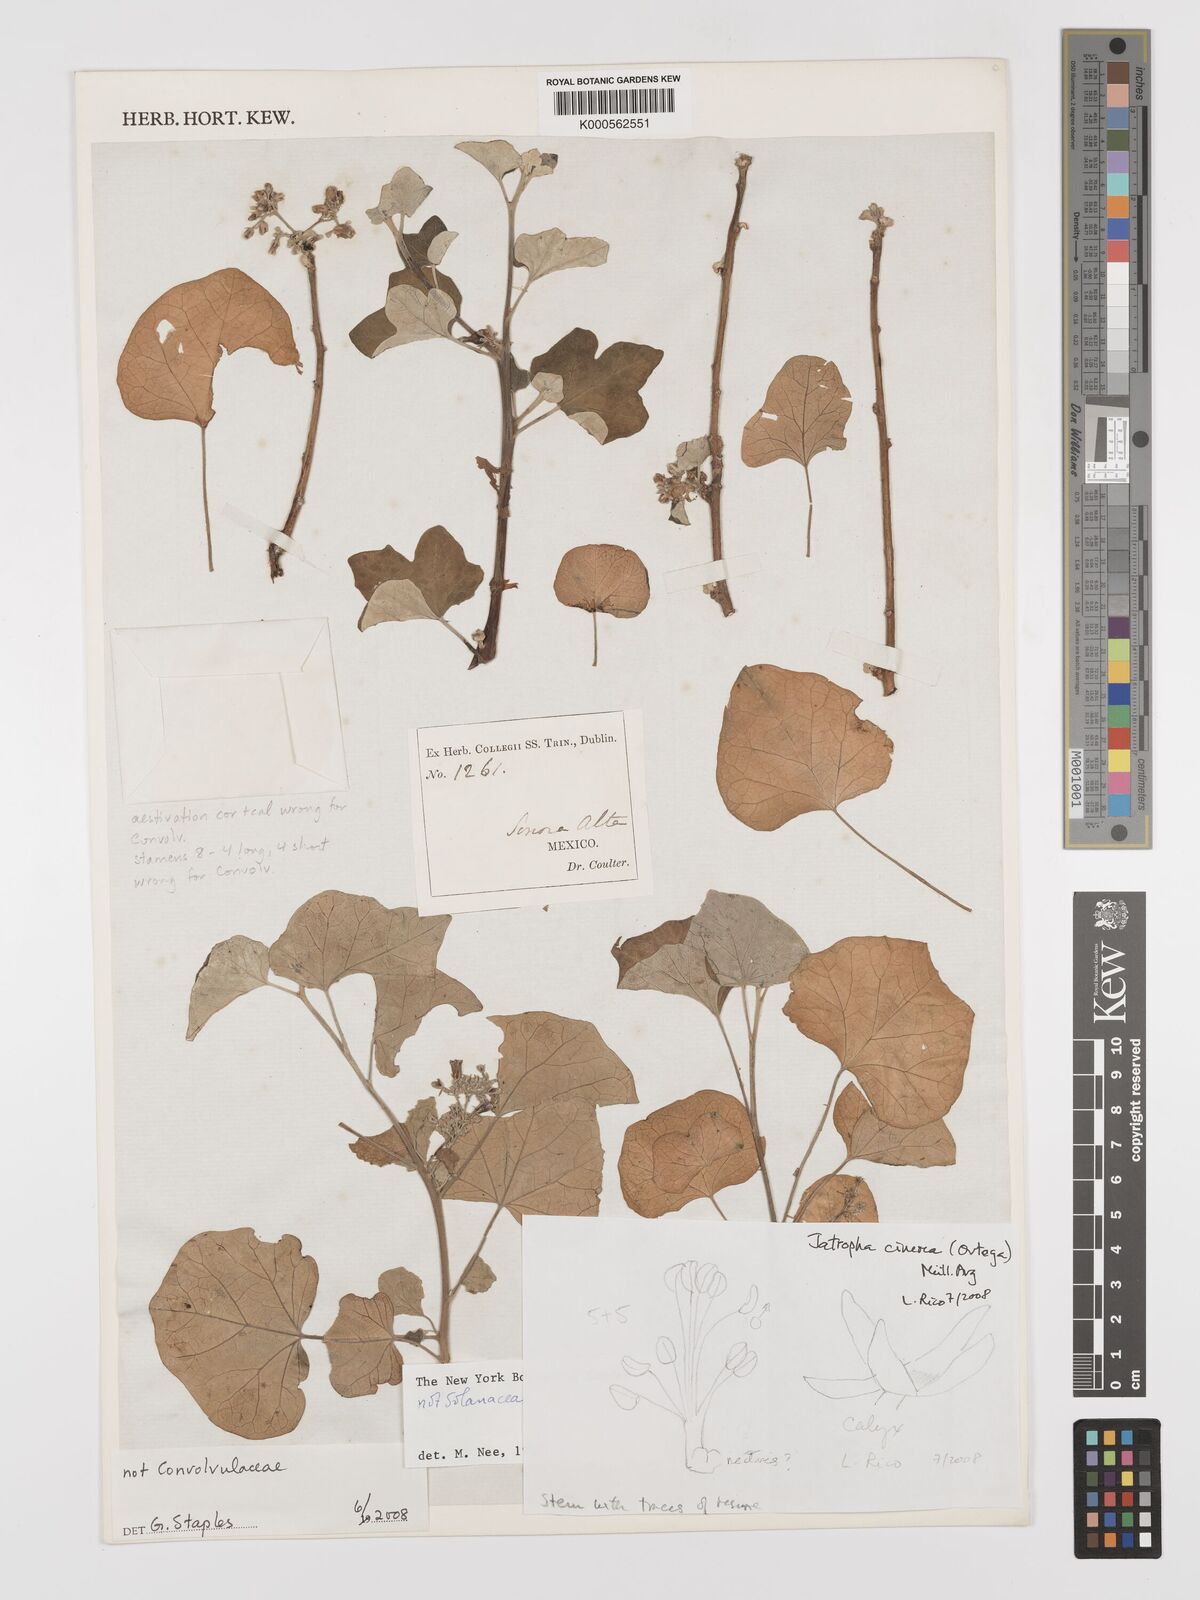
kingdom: Plantae
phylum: Tracheophyta
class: Magnoliopsida
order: Malpighiales
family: Euphorbiaceae
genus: Jatropha
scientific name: Jatropha
